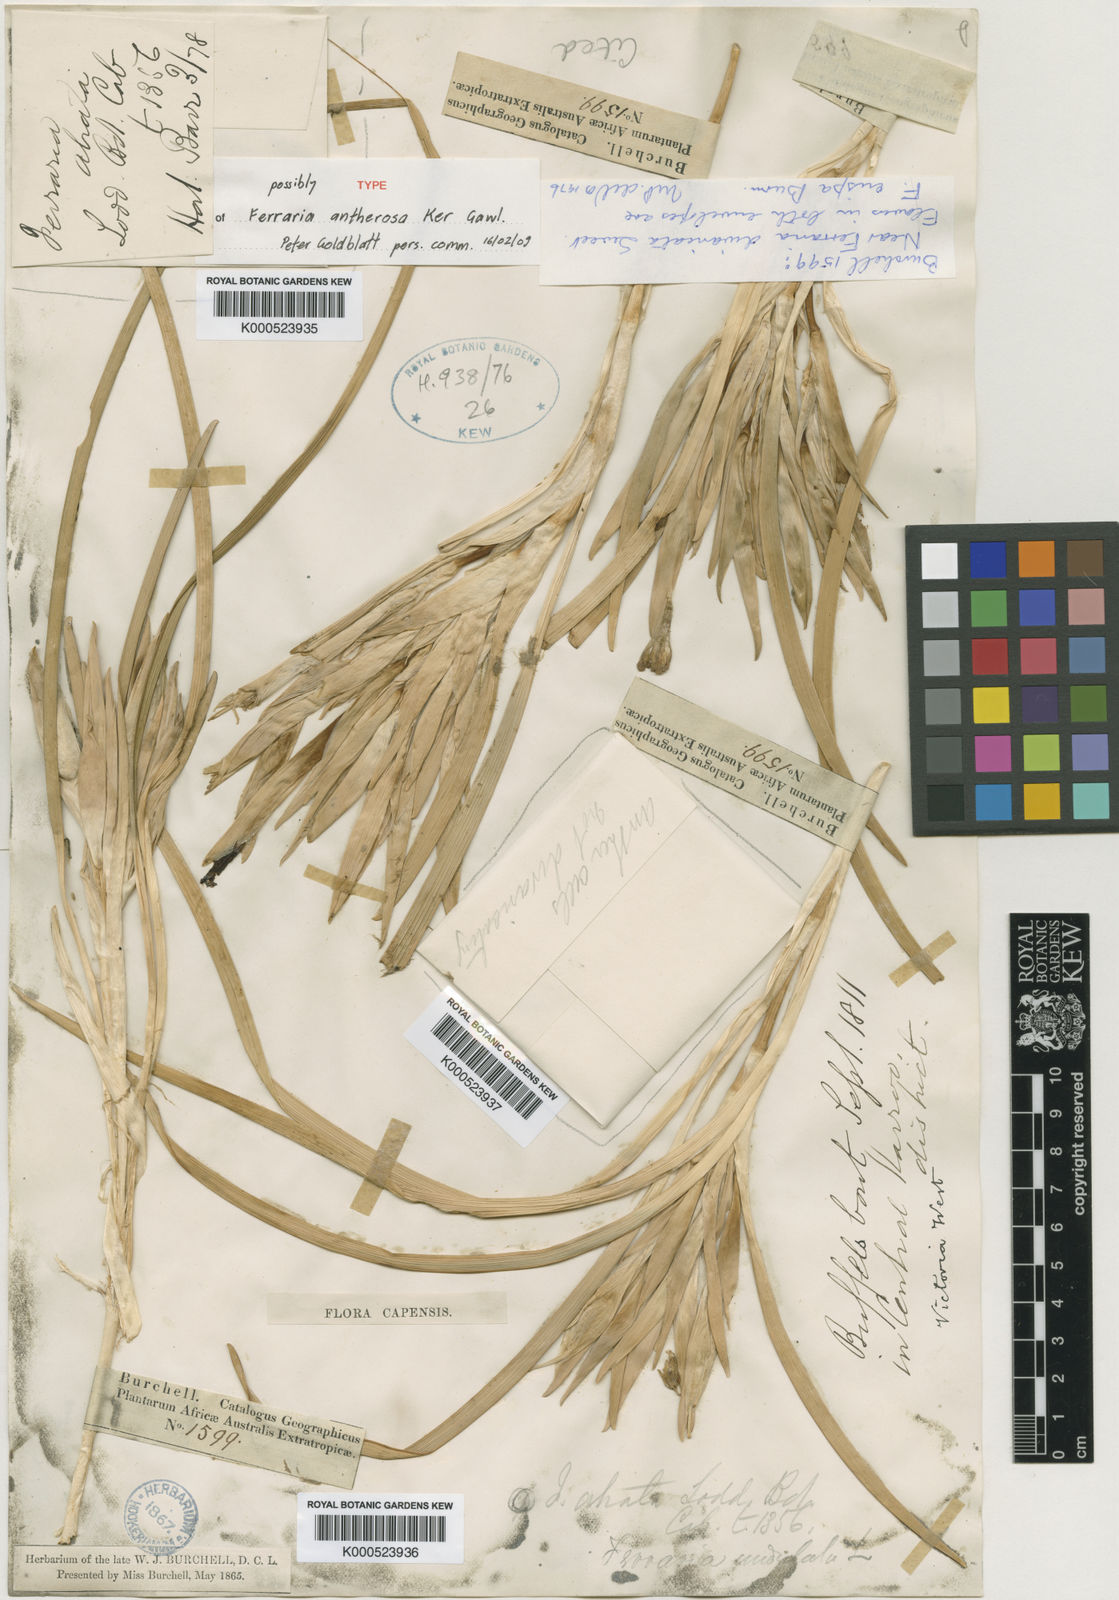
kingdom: Plantae
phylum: Tracheophyta
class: Liliopsida
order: Asparagales
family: Iridaceae
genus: Ferraria
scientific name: Ferraria ferrariola
